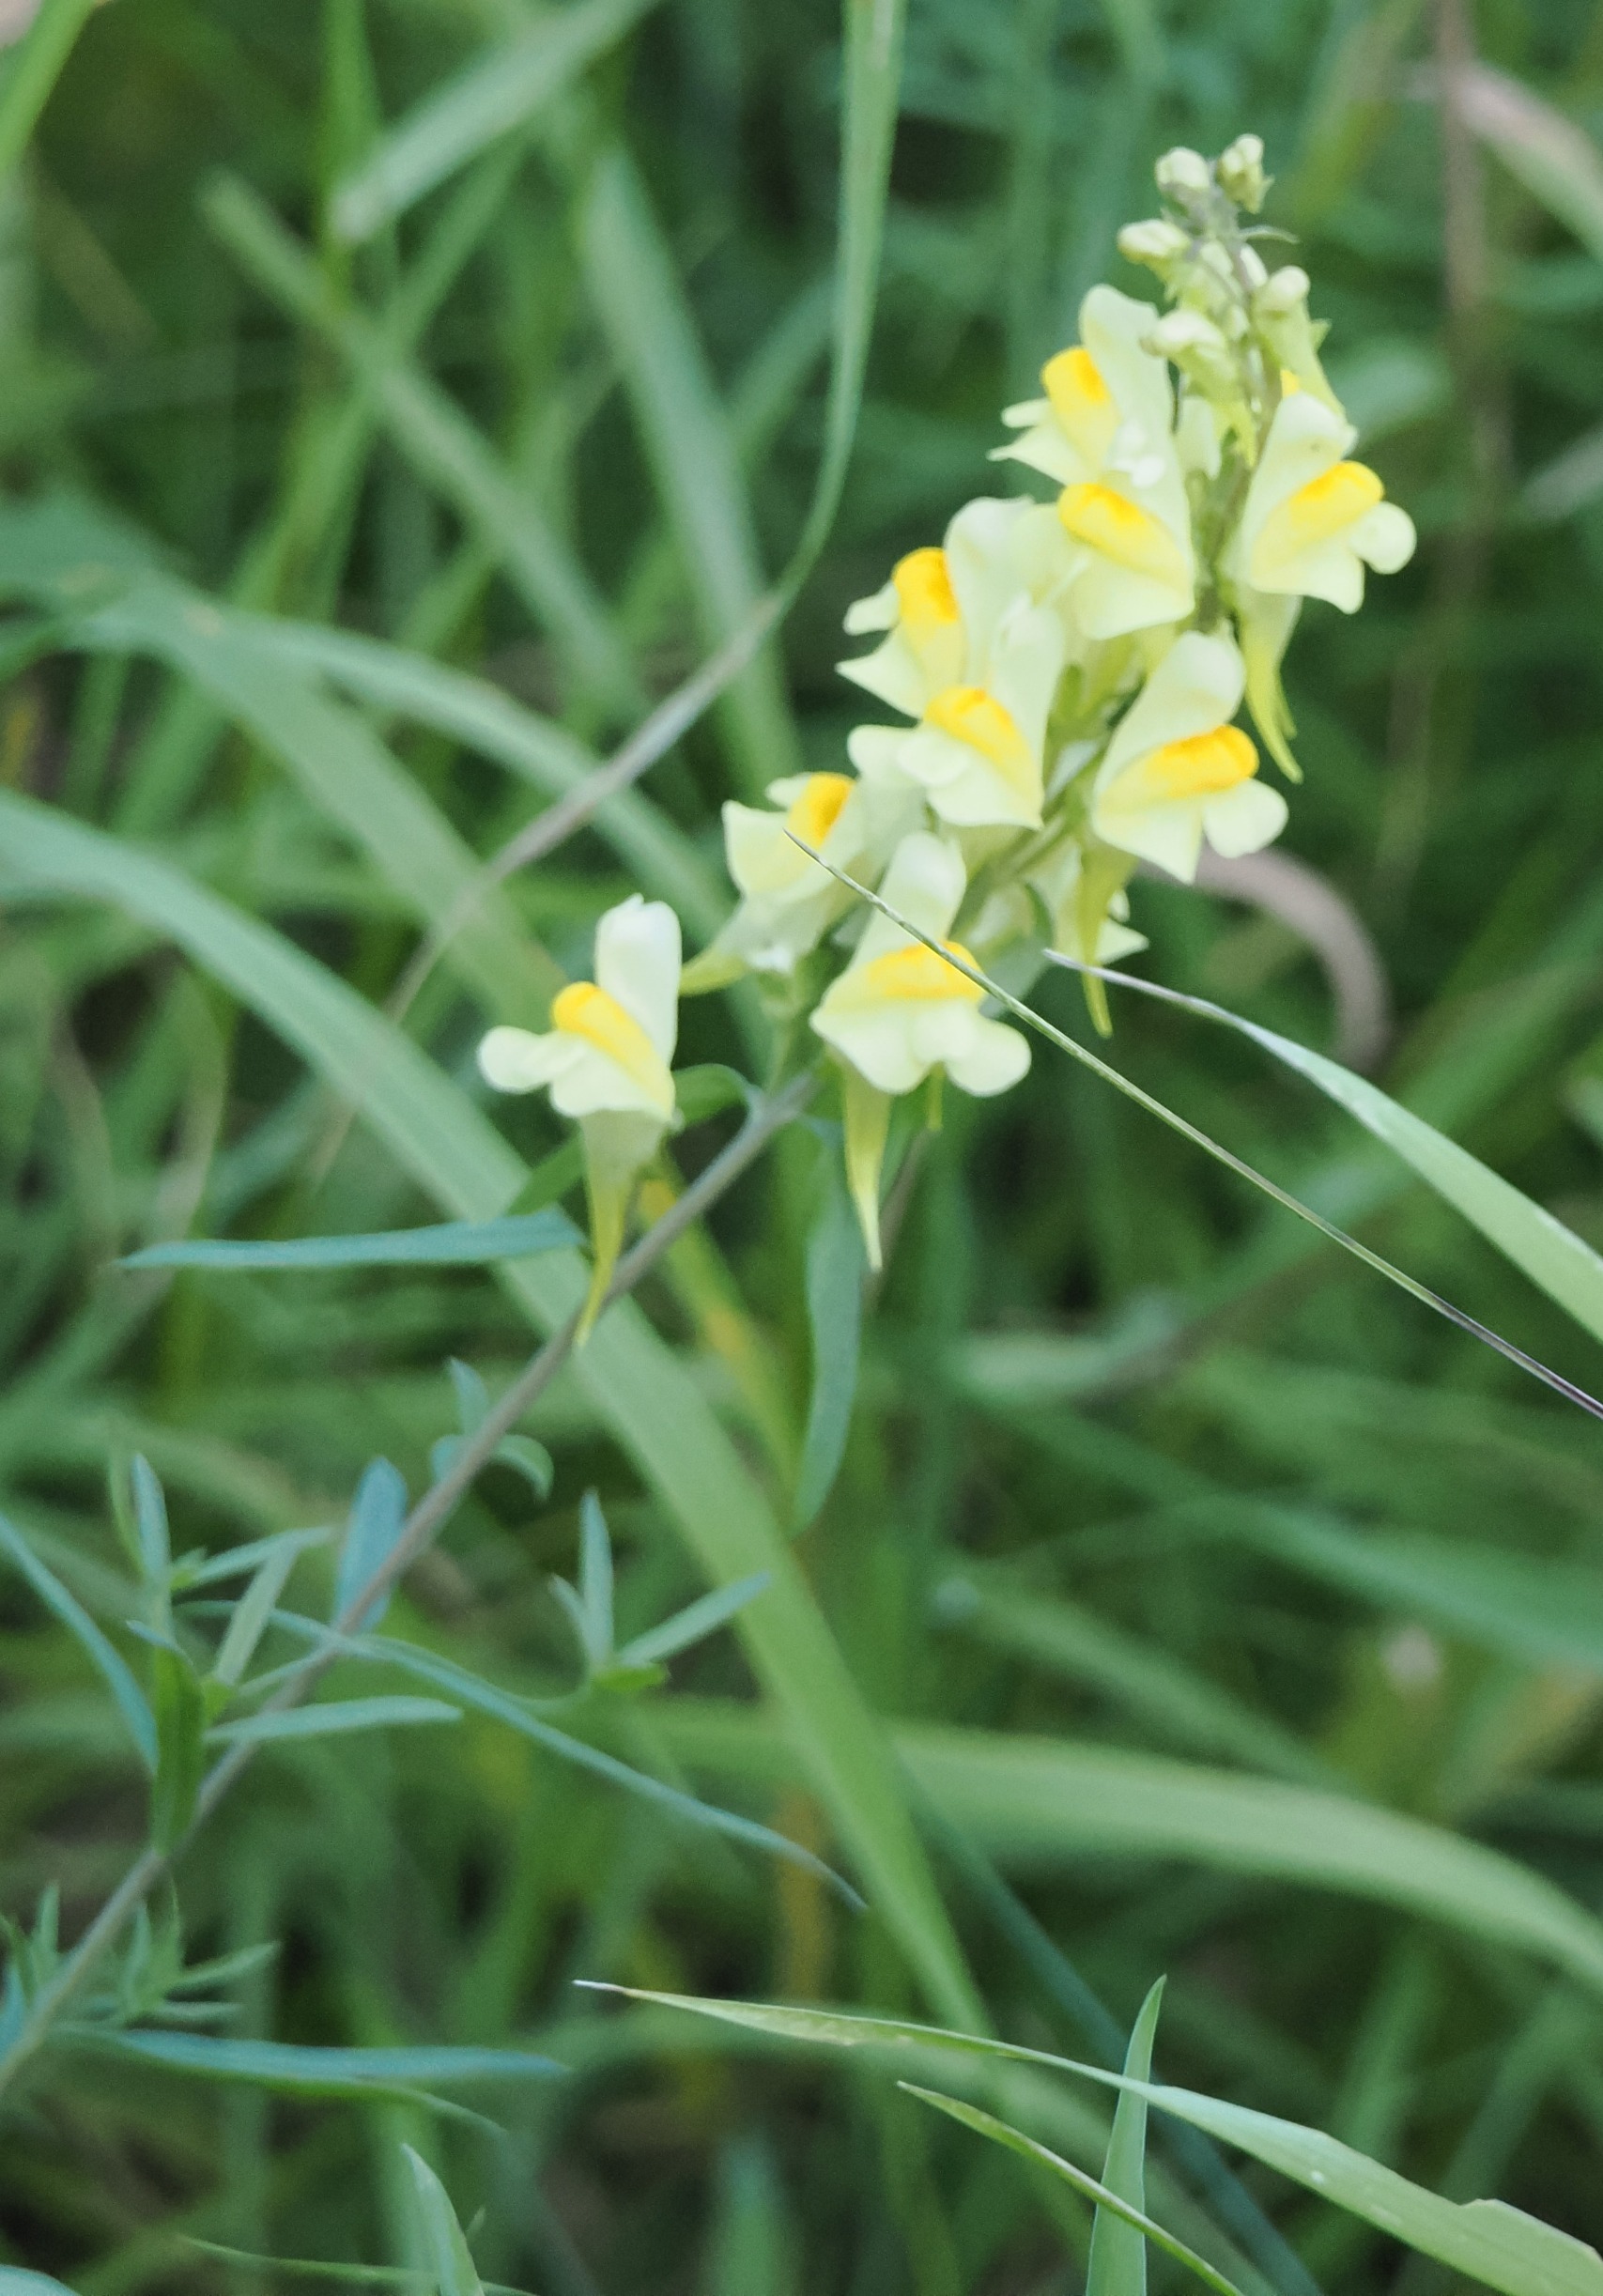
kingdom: Plantae
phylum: Tracheophyta
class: Magnoliopsida
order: Lamiales
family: Plantaginaceae
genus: Linaria
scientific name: Linaria vulgaris
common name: Almindelig torskemund
